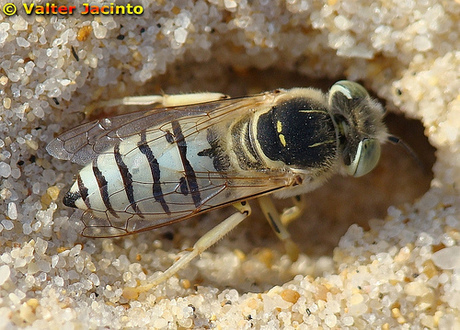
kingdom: Animalia
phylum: Arthropoda
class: Insecta
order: Hymenoptera
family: Crabronidae
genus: Bembix
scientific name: Bembix olivacea
